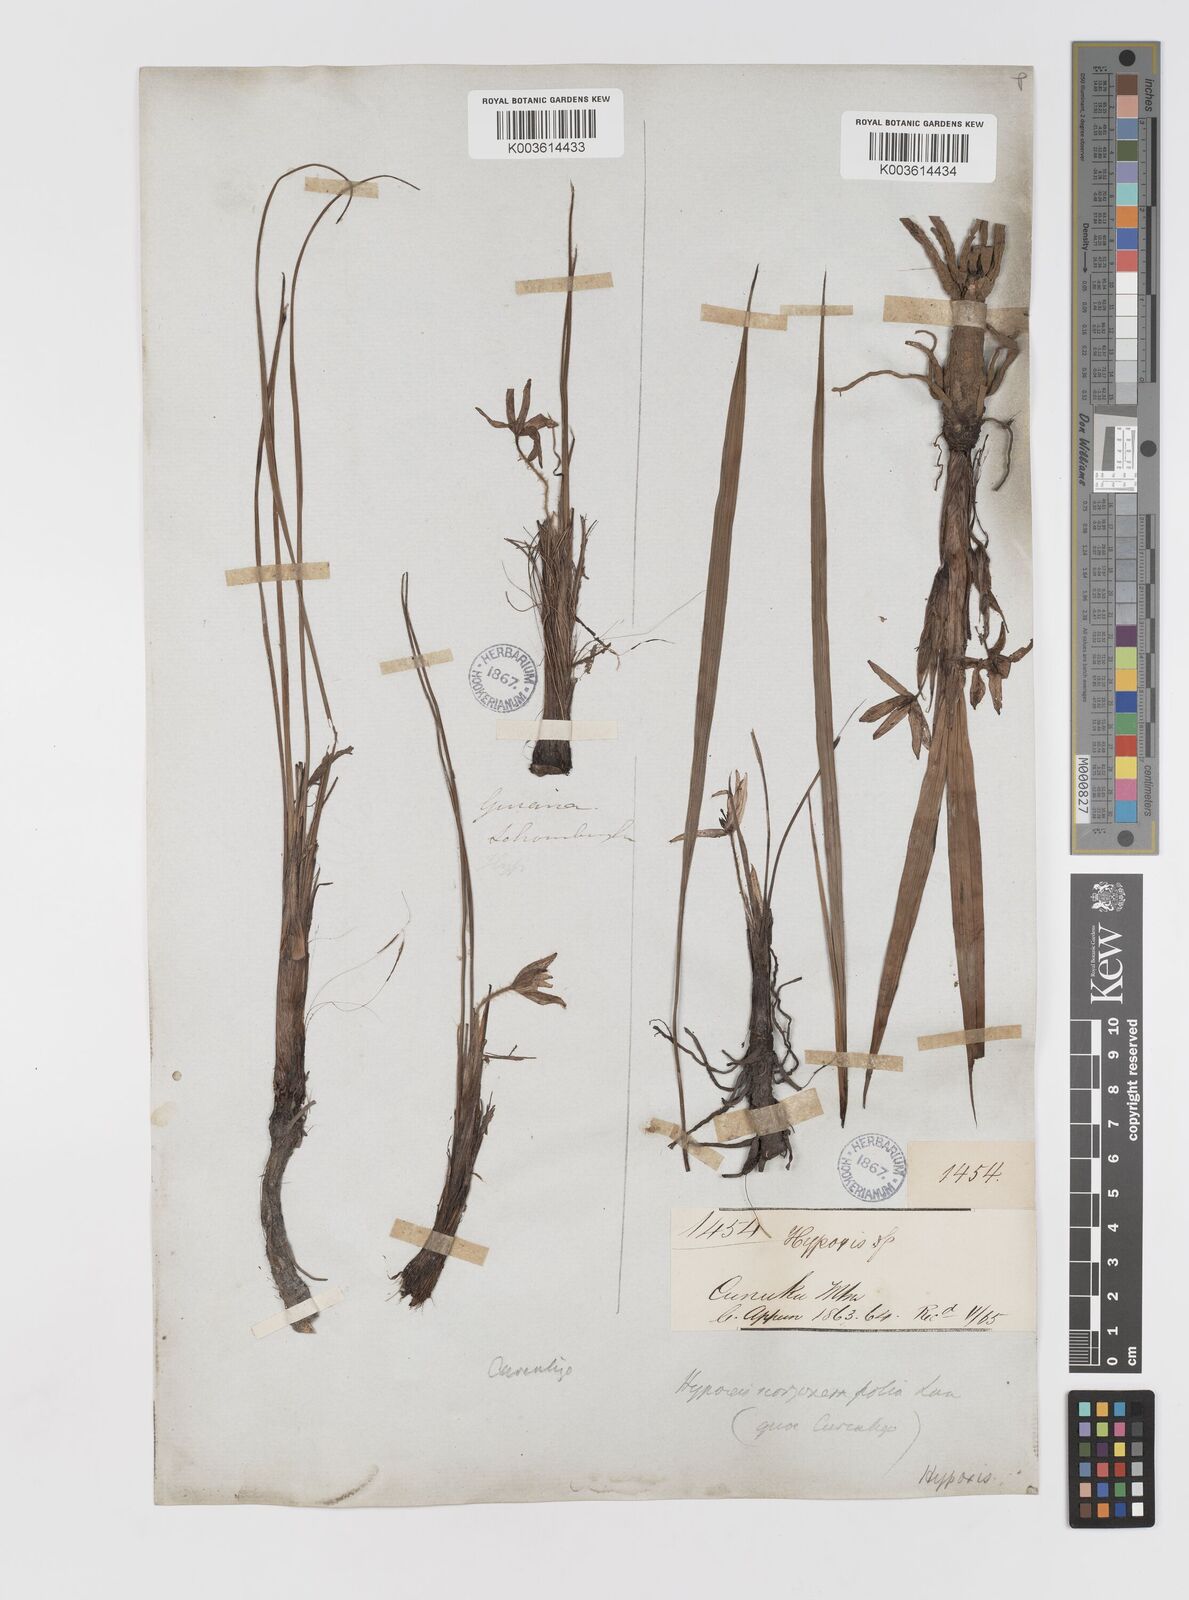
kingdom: Plantae
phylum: Tracheophyta
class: Liliopsida
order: Asparagales
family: Hypoxidaceae
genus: Curculigo
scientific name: Curculigo scorzonerifolia
